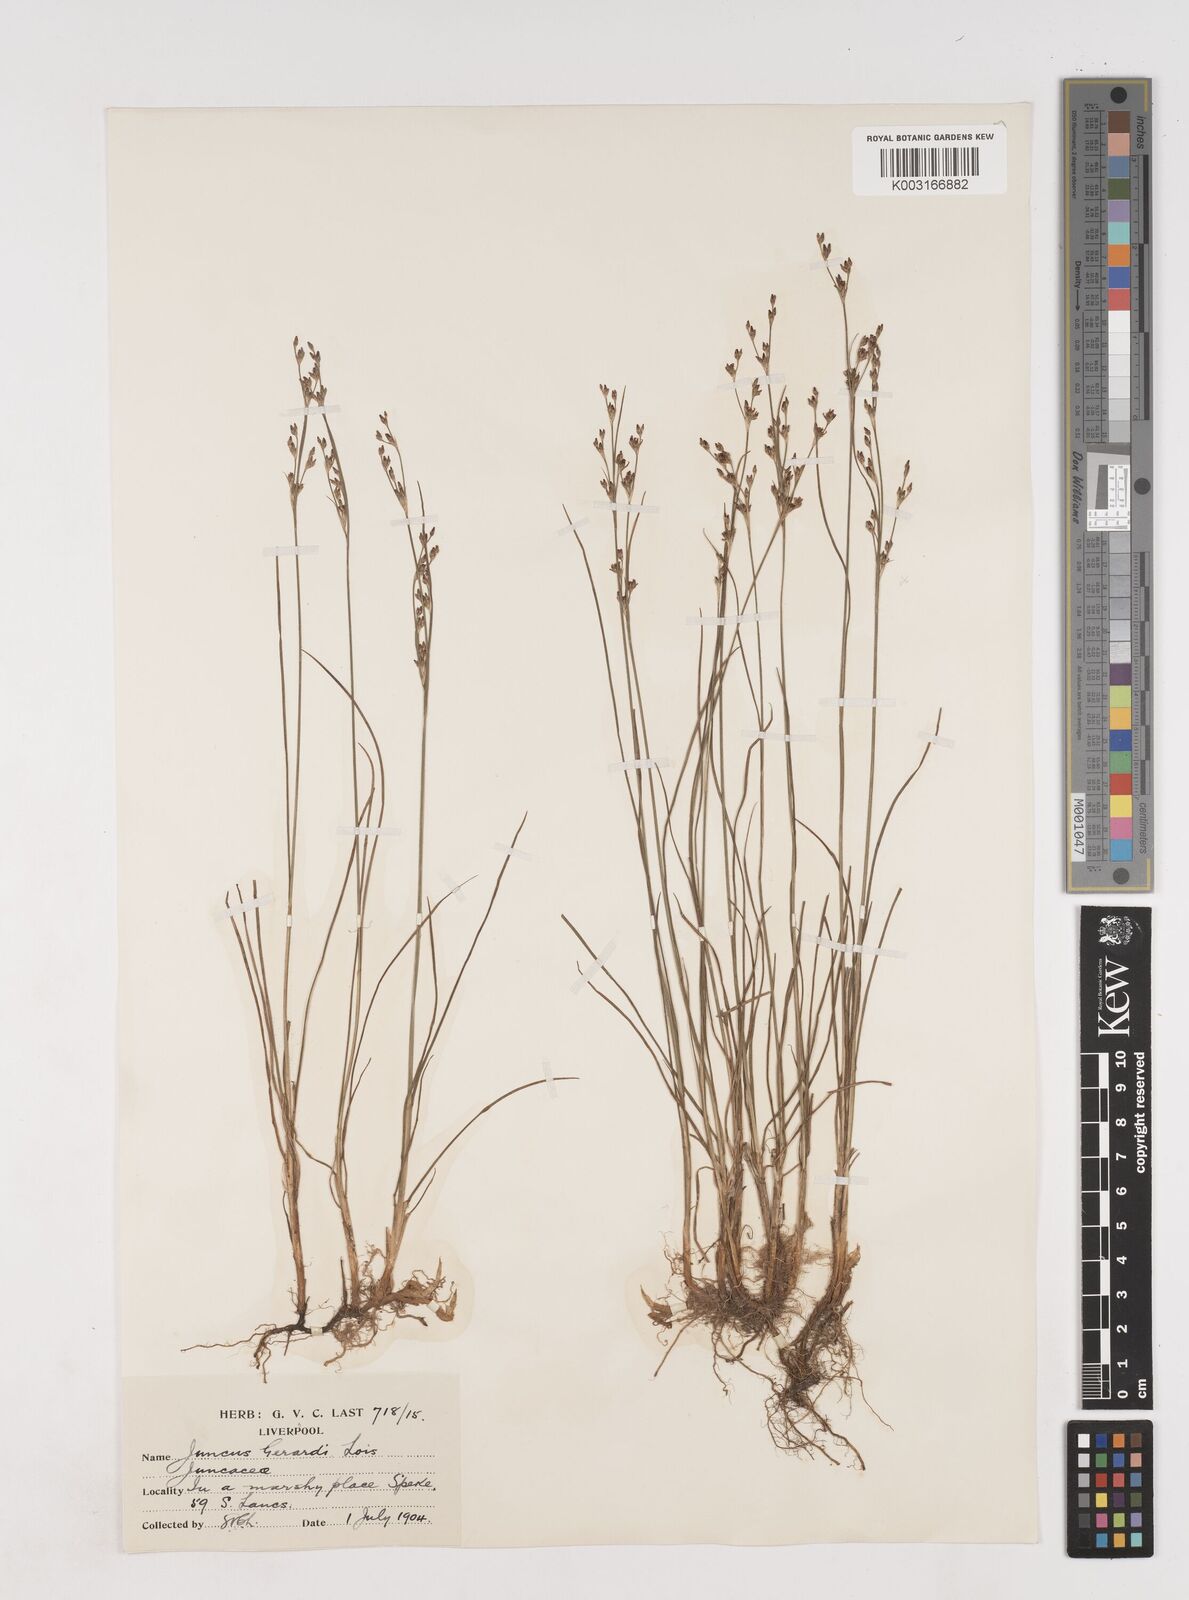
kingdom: Plantae
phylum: Tracheophyta
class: Liliopsida
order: Poales
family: Juncaceae
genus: Juncus
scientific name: Juncus gerardi
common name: Saltmarsh rush
